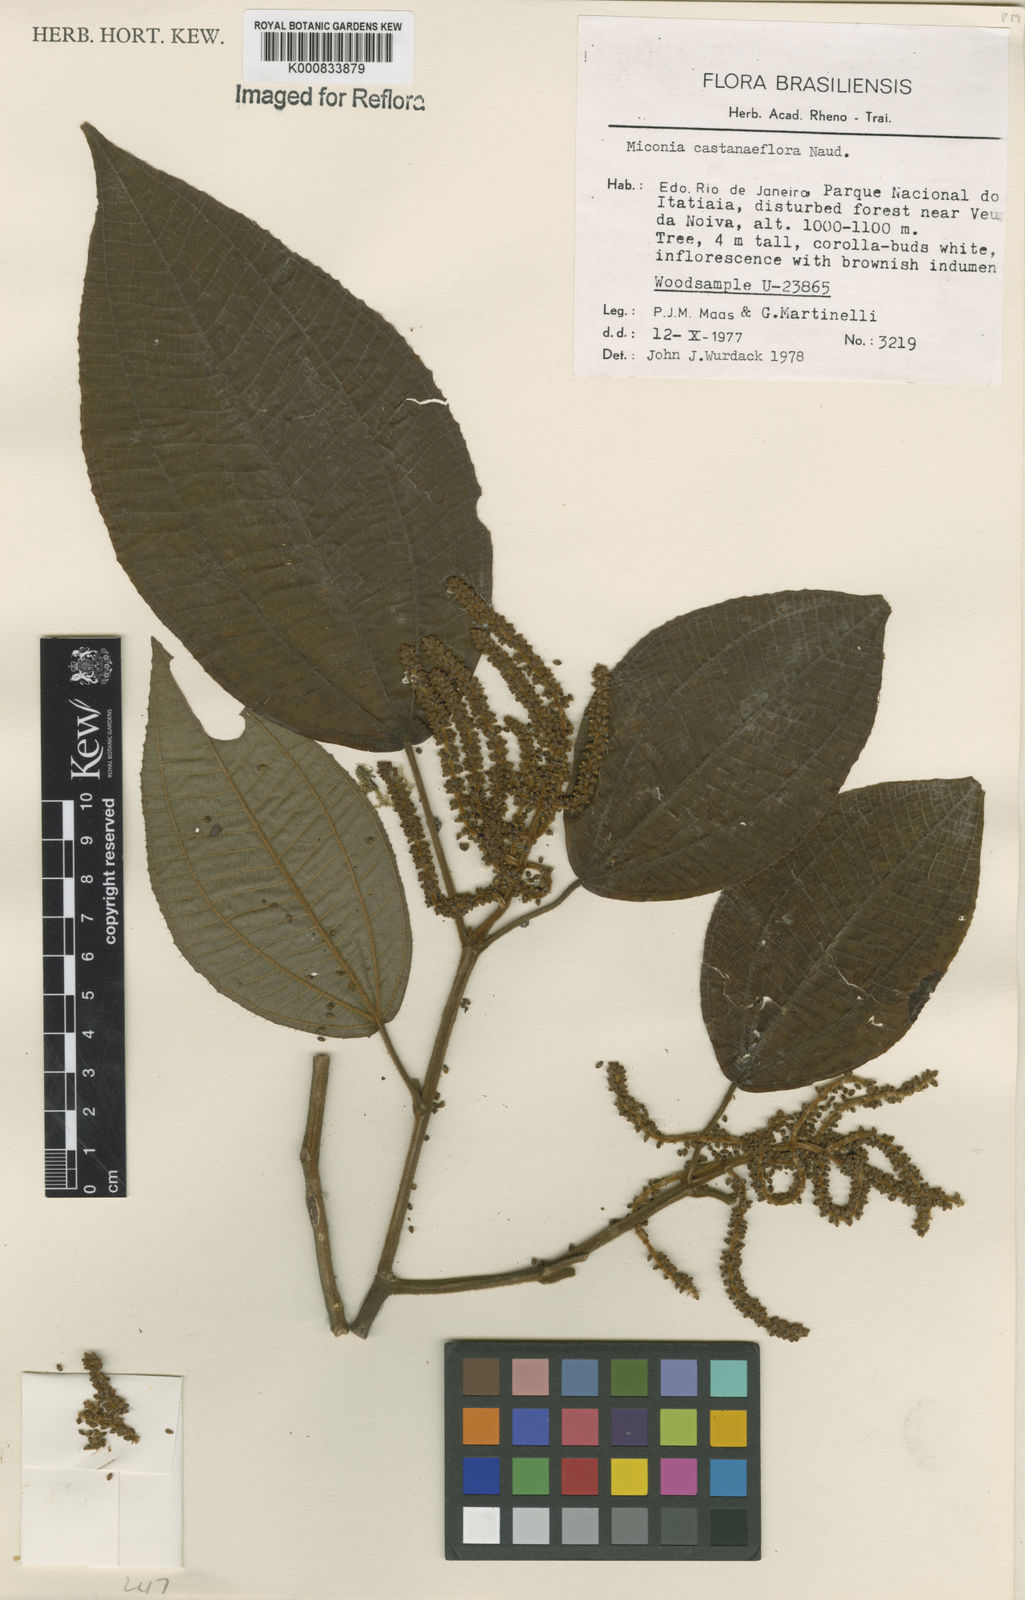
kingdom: Plantae
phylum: Tracheophyta
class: Magnoliopsida
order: Myrtales
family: Melastomataceae
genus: Miconia
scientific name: Miconia
